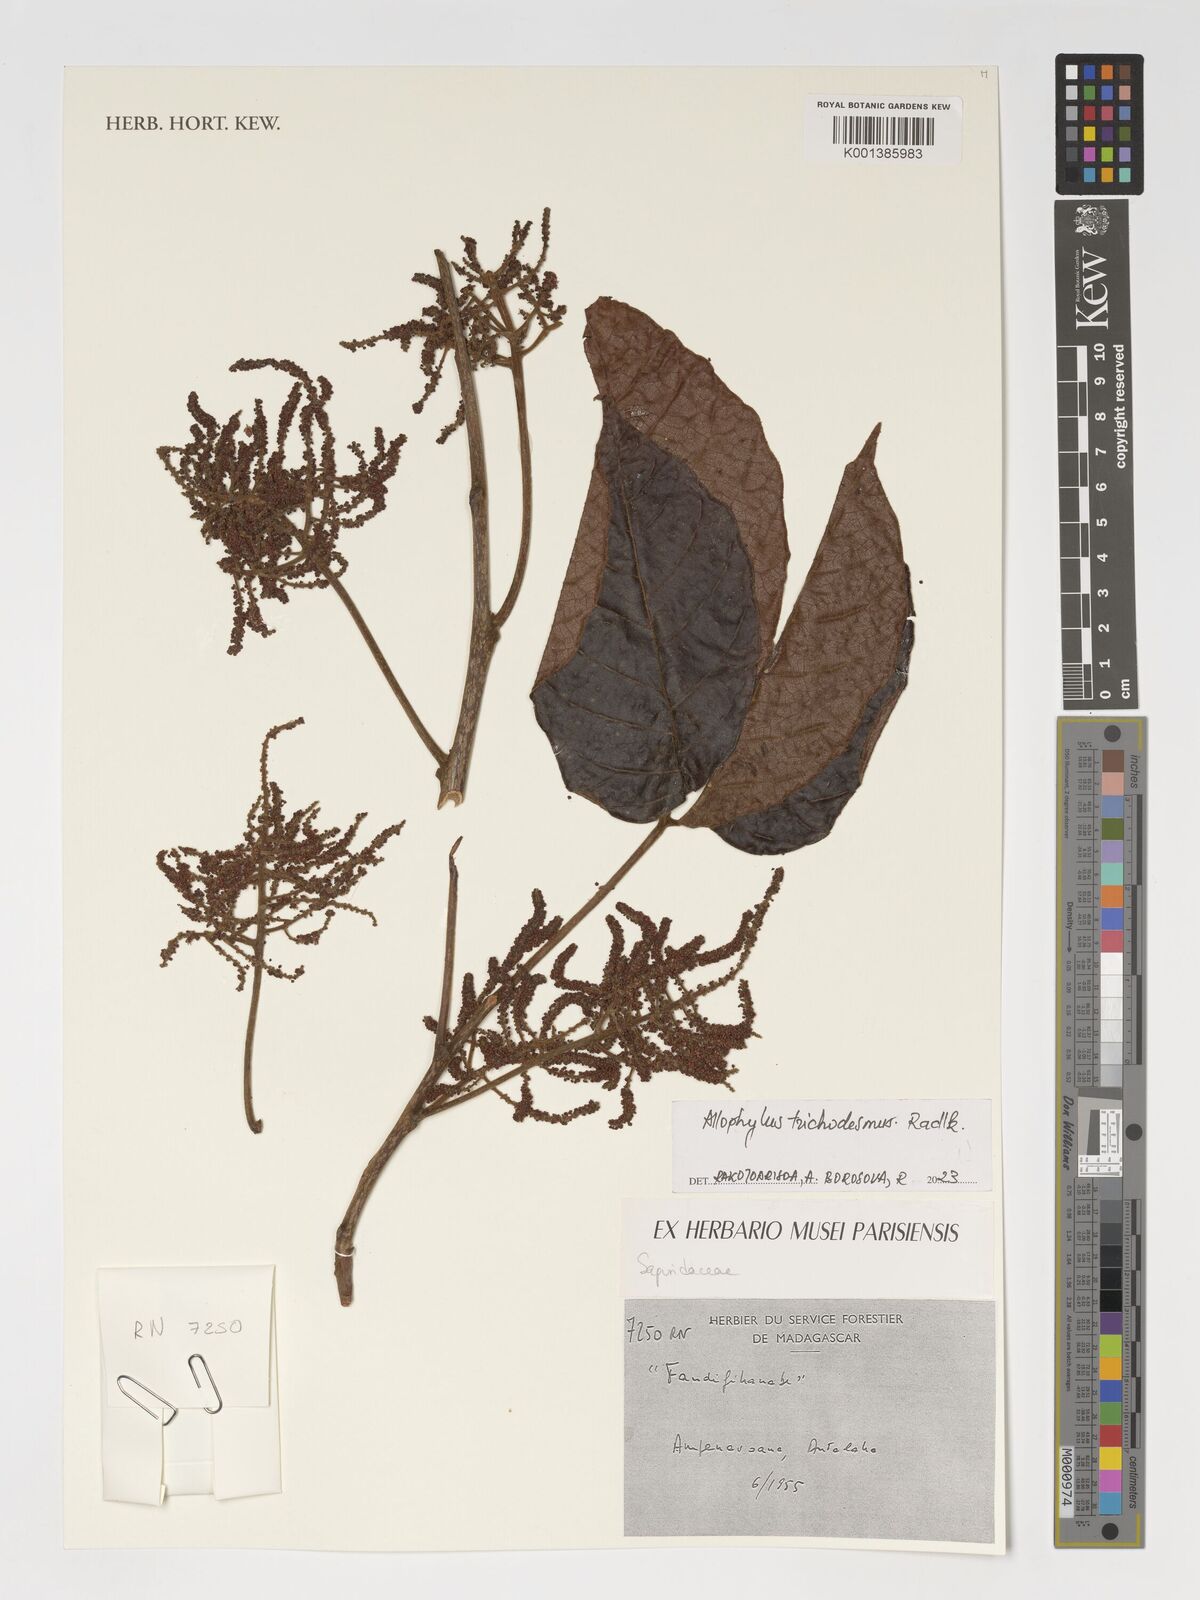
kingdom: Plantae
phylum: Tracheophyta
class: Magnoliopsida
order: Sapindales
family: Sapindaceae
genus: Allophylus
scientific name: Allophylus trichodesmus
